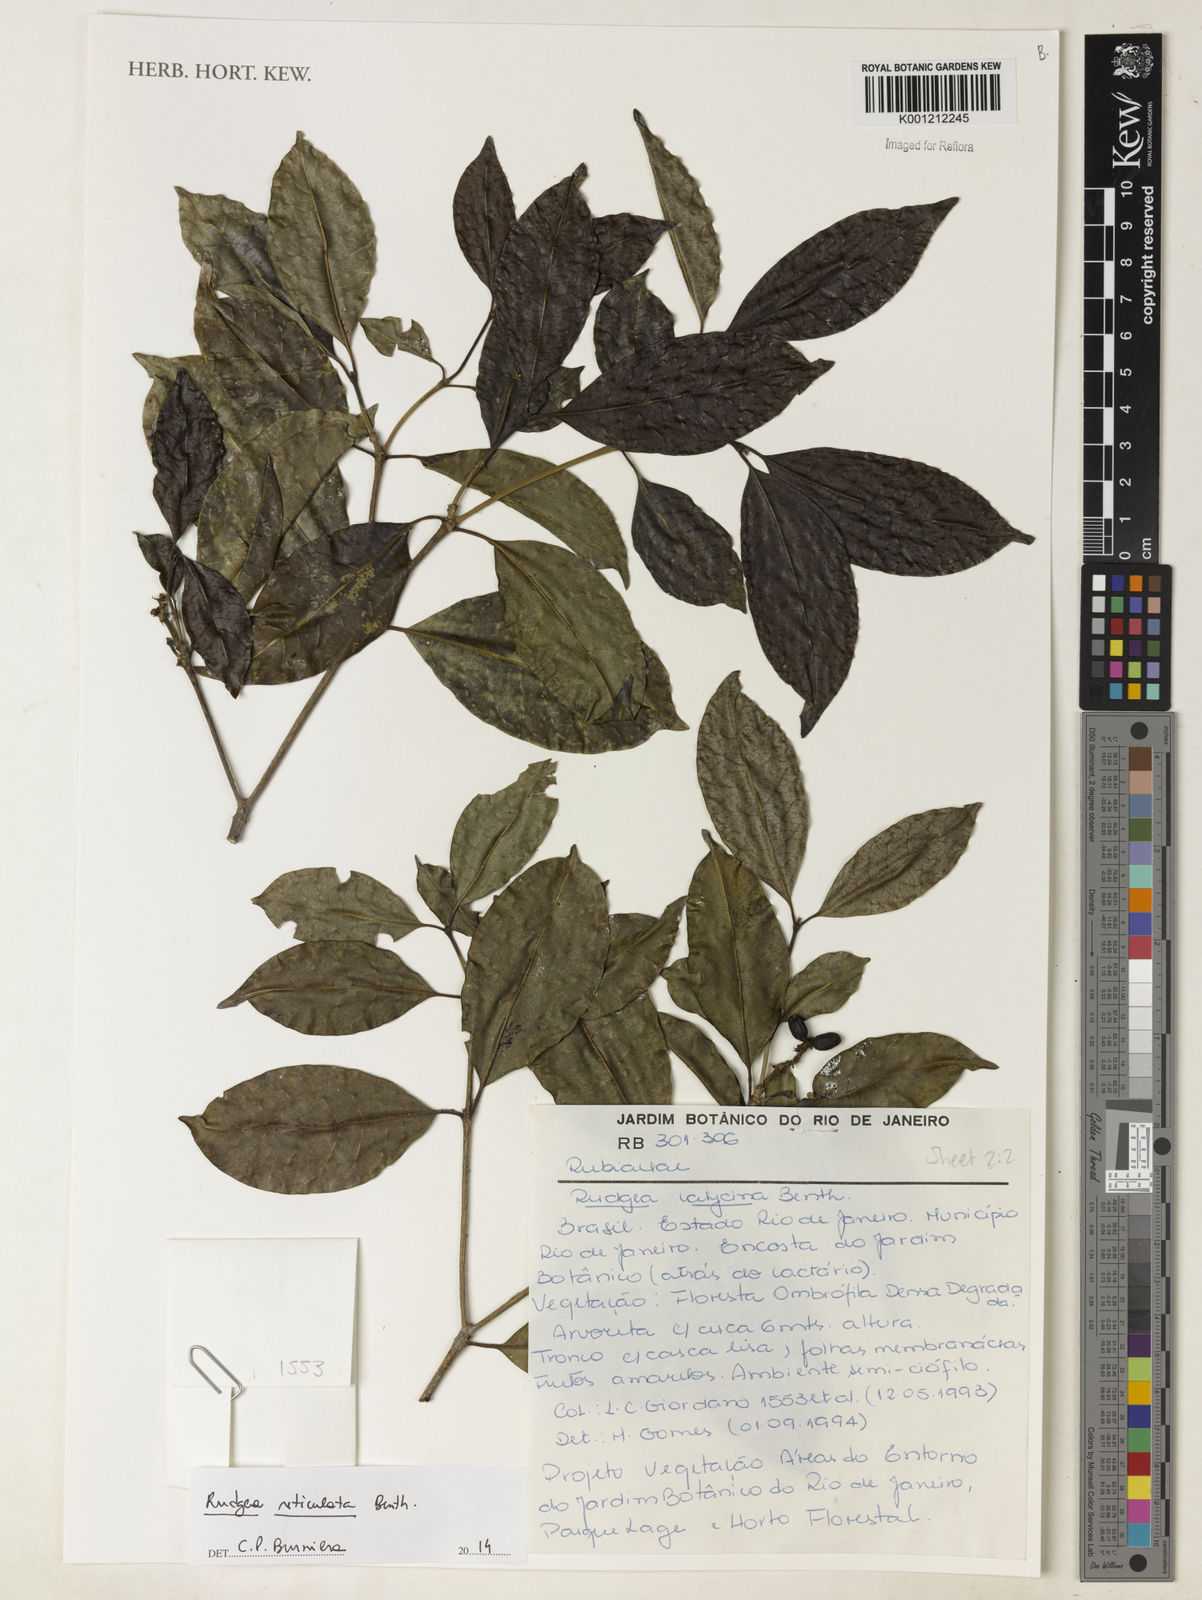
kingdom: Plantae
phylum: Tracheophyta
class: Magnoliopsida
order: Gentianales
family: Rubiaceae
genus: Rudgea
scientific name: Rudgea reticulata
